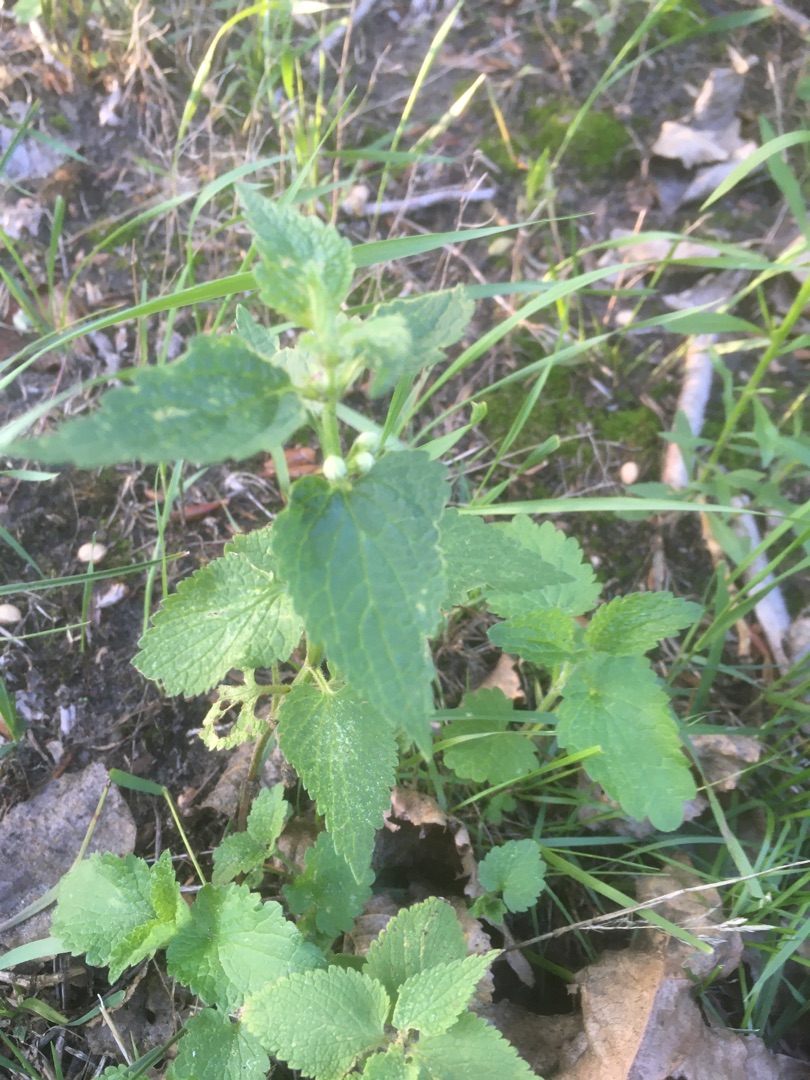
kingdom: Plantae
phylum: Tracheophyta
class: Magnoliopsida
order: Lamiales
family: Lamiaceae
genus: Lamium
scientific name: Lamium album
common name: Døvnælde
